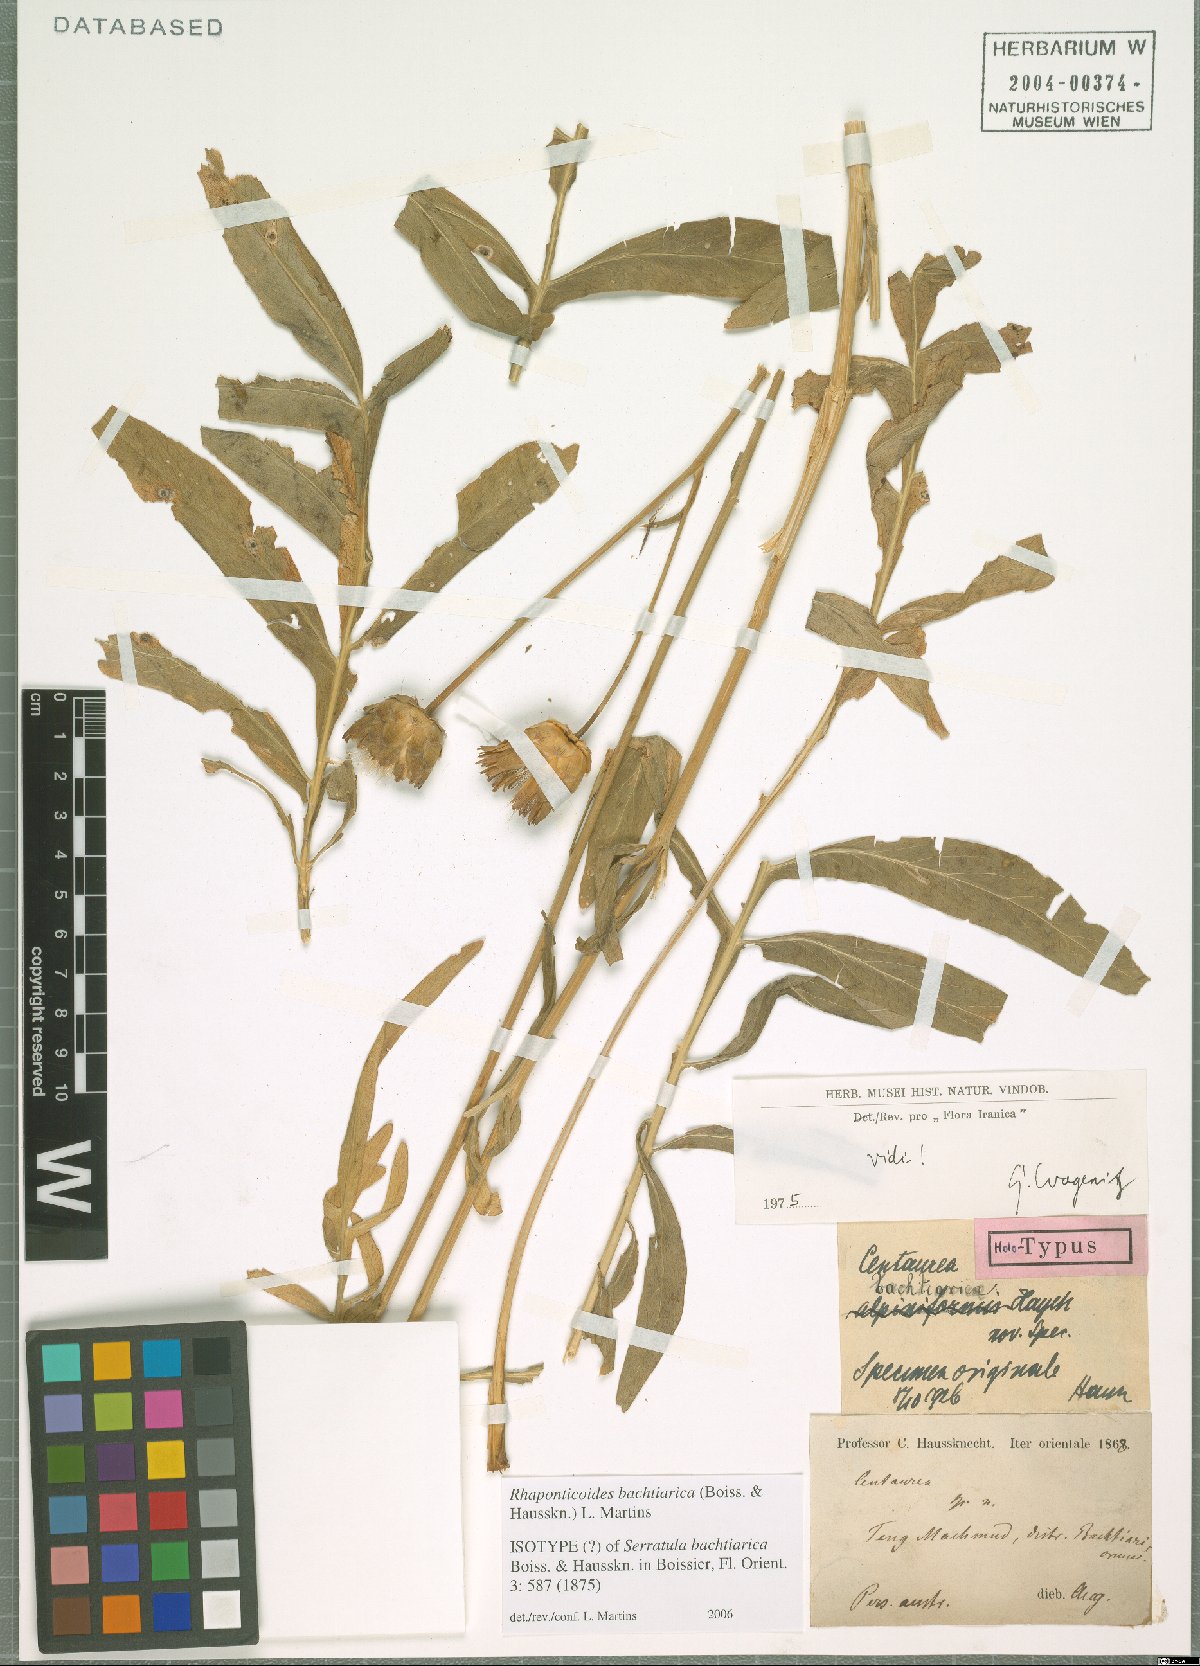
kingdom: Plantae
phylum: Tracheophyta
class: Magnoliopsida
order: Asterales
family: Asteraceae
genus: Rhaponticoides
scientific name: Rhaponticoides bachtiarica
